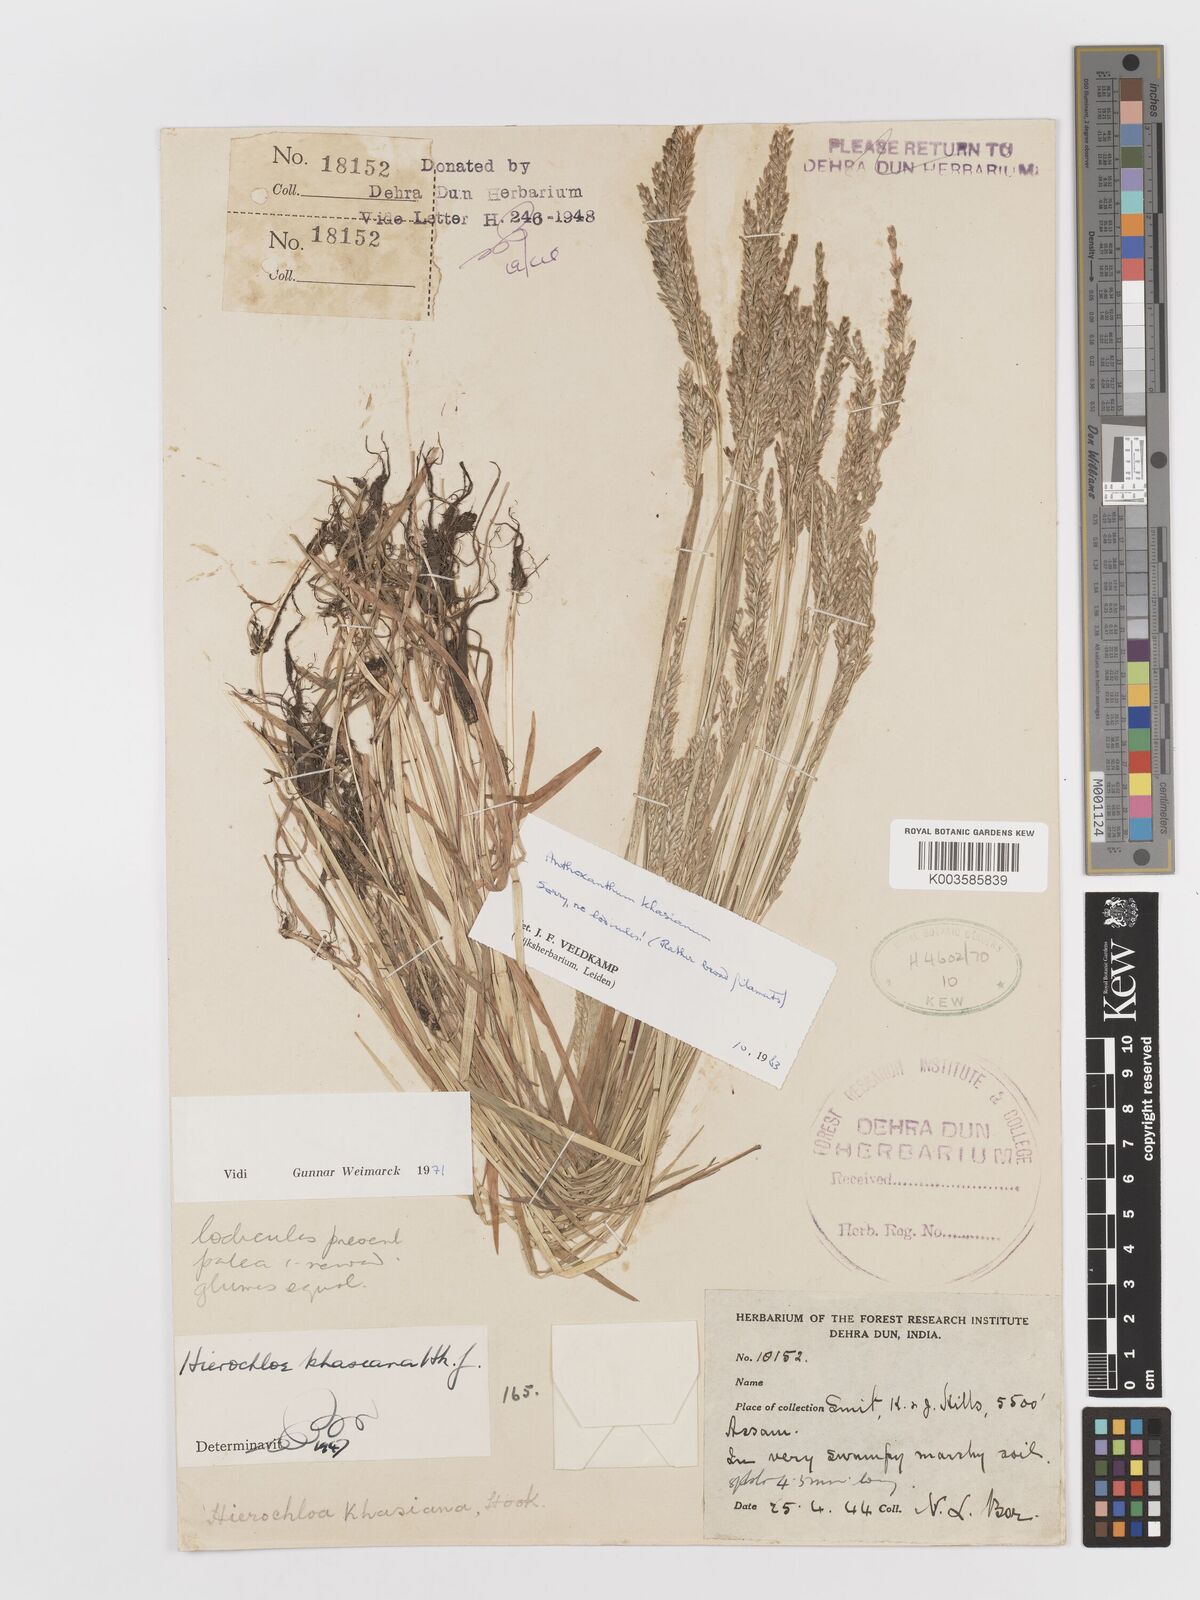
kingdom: Plantae
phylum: Tracheophyta
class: Liliopsida
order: Poales
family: Poaceae
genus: Anthoxanthum
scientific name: Anthoxanthum khasianum
